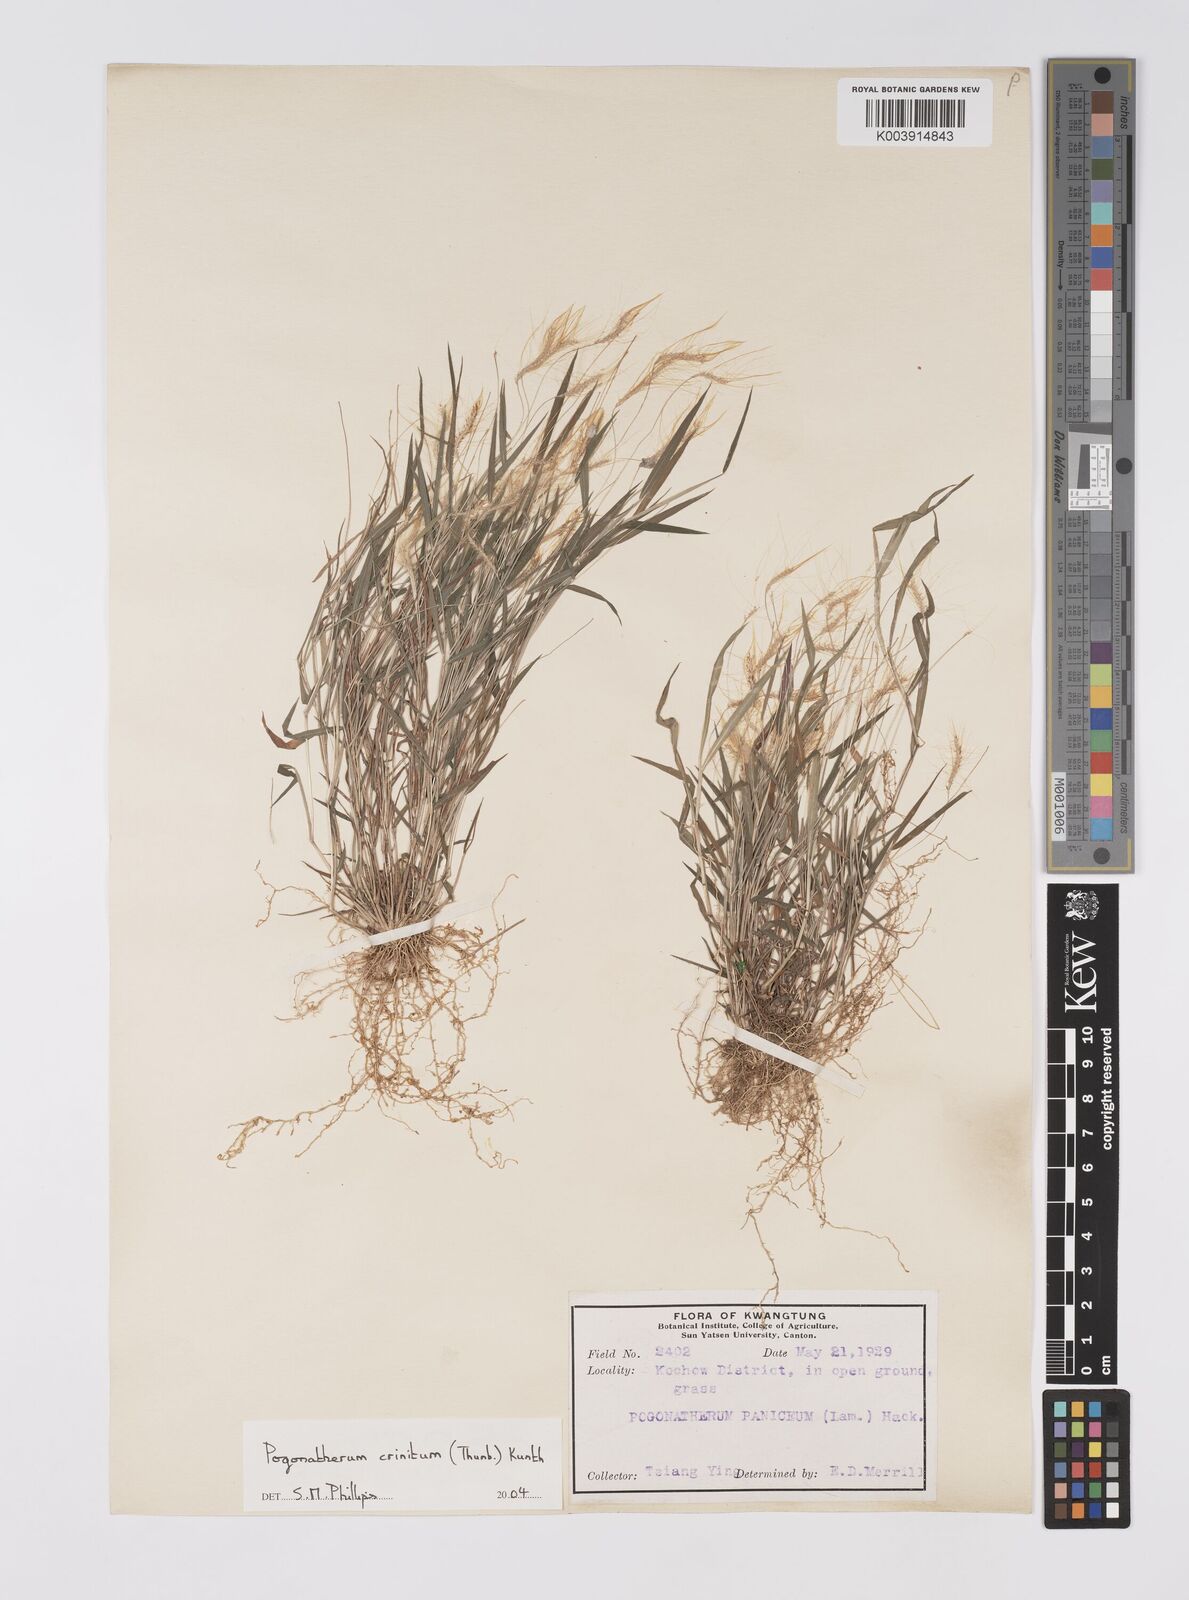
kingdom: Plantae
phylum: Tracheophyta
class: Liliopsida
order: Poales
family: Poaceae
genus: Pogonatherum
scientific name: Pogonatherum crinitum
